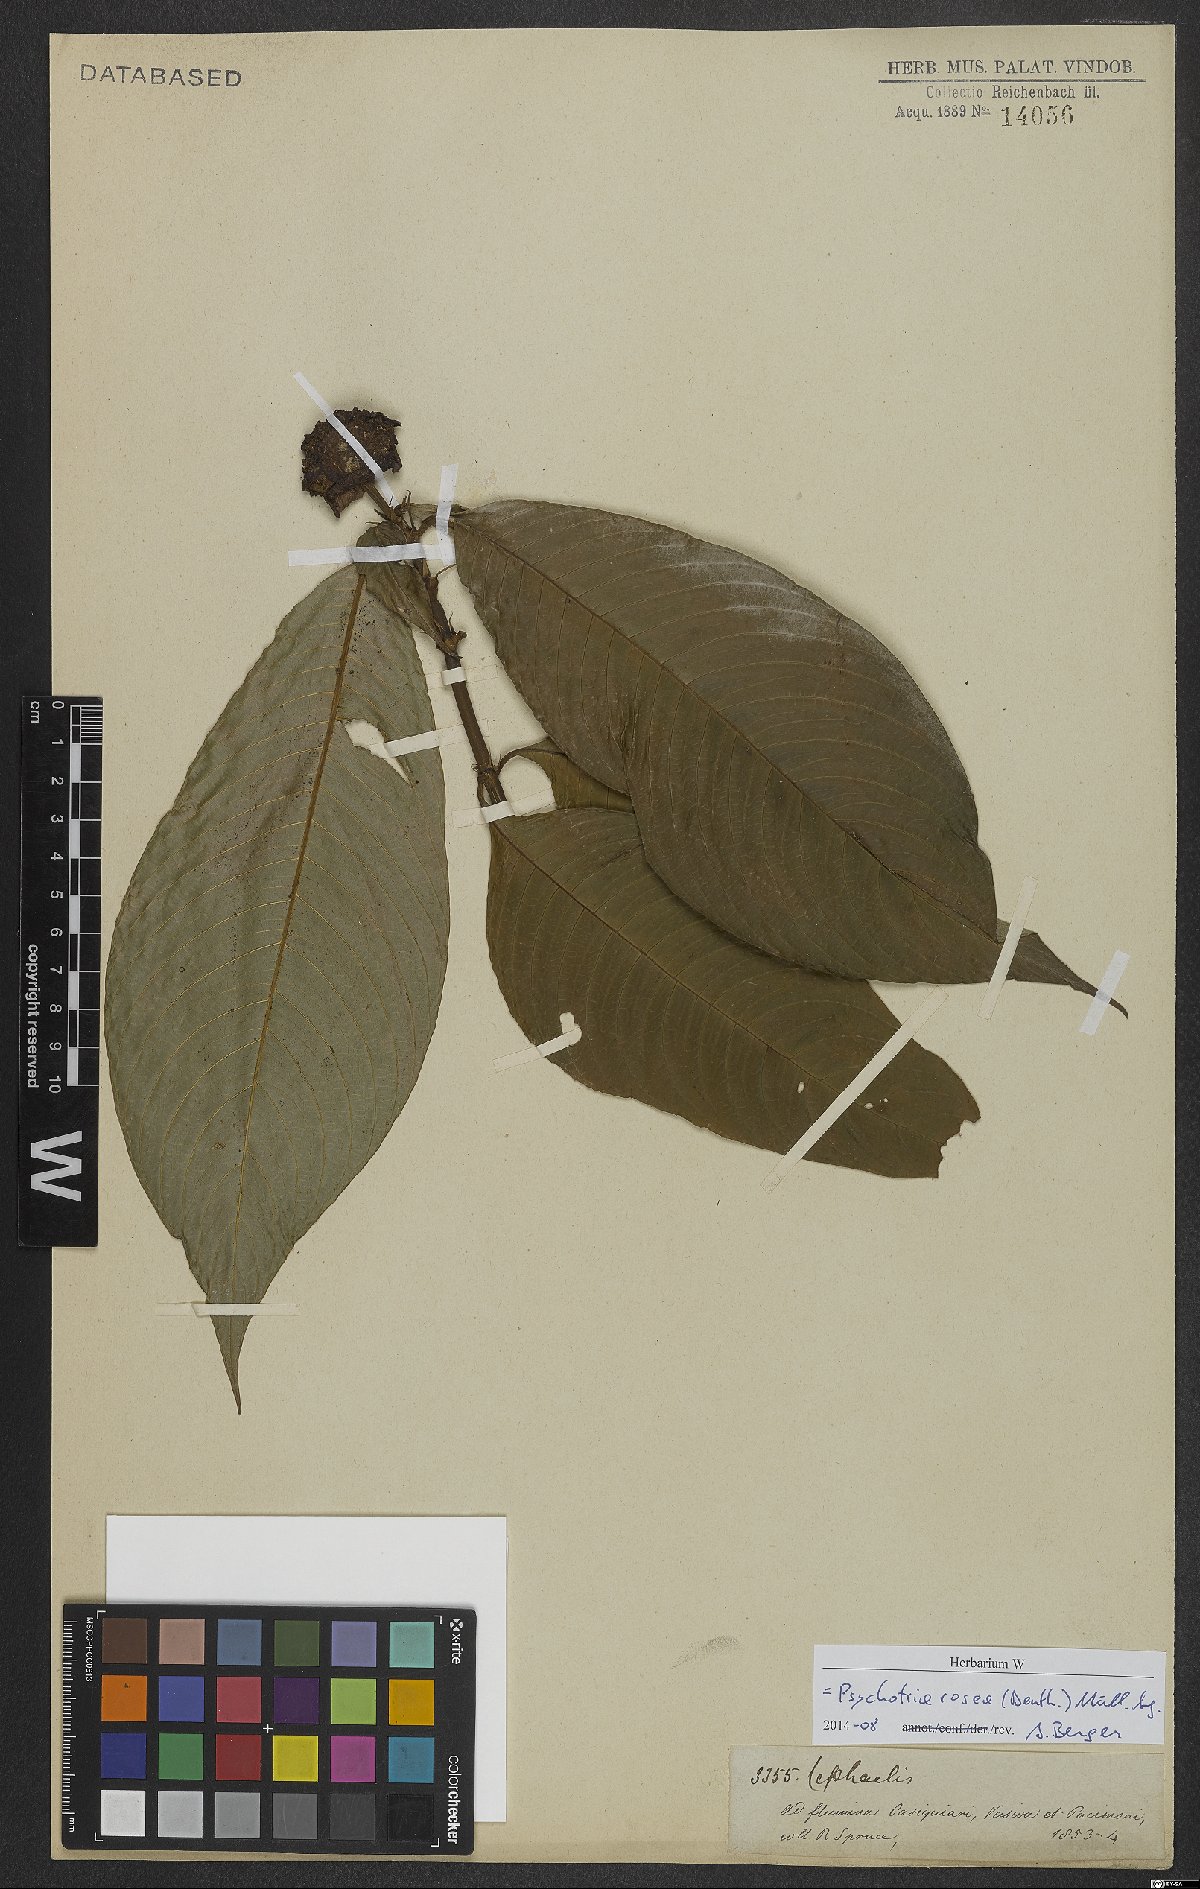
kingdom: Plantae
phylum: Tracheophyta
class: Magnoliopsida
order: Gentianales
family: Rubiaceae
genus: Palicourea
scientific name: Palicourea colorata
